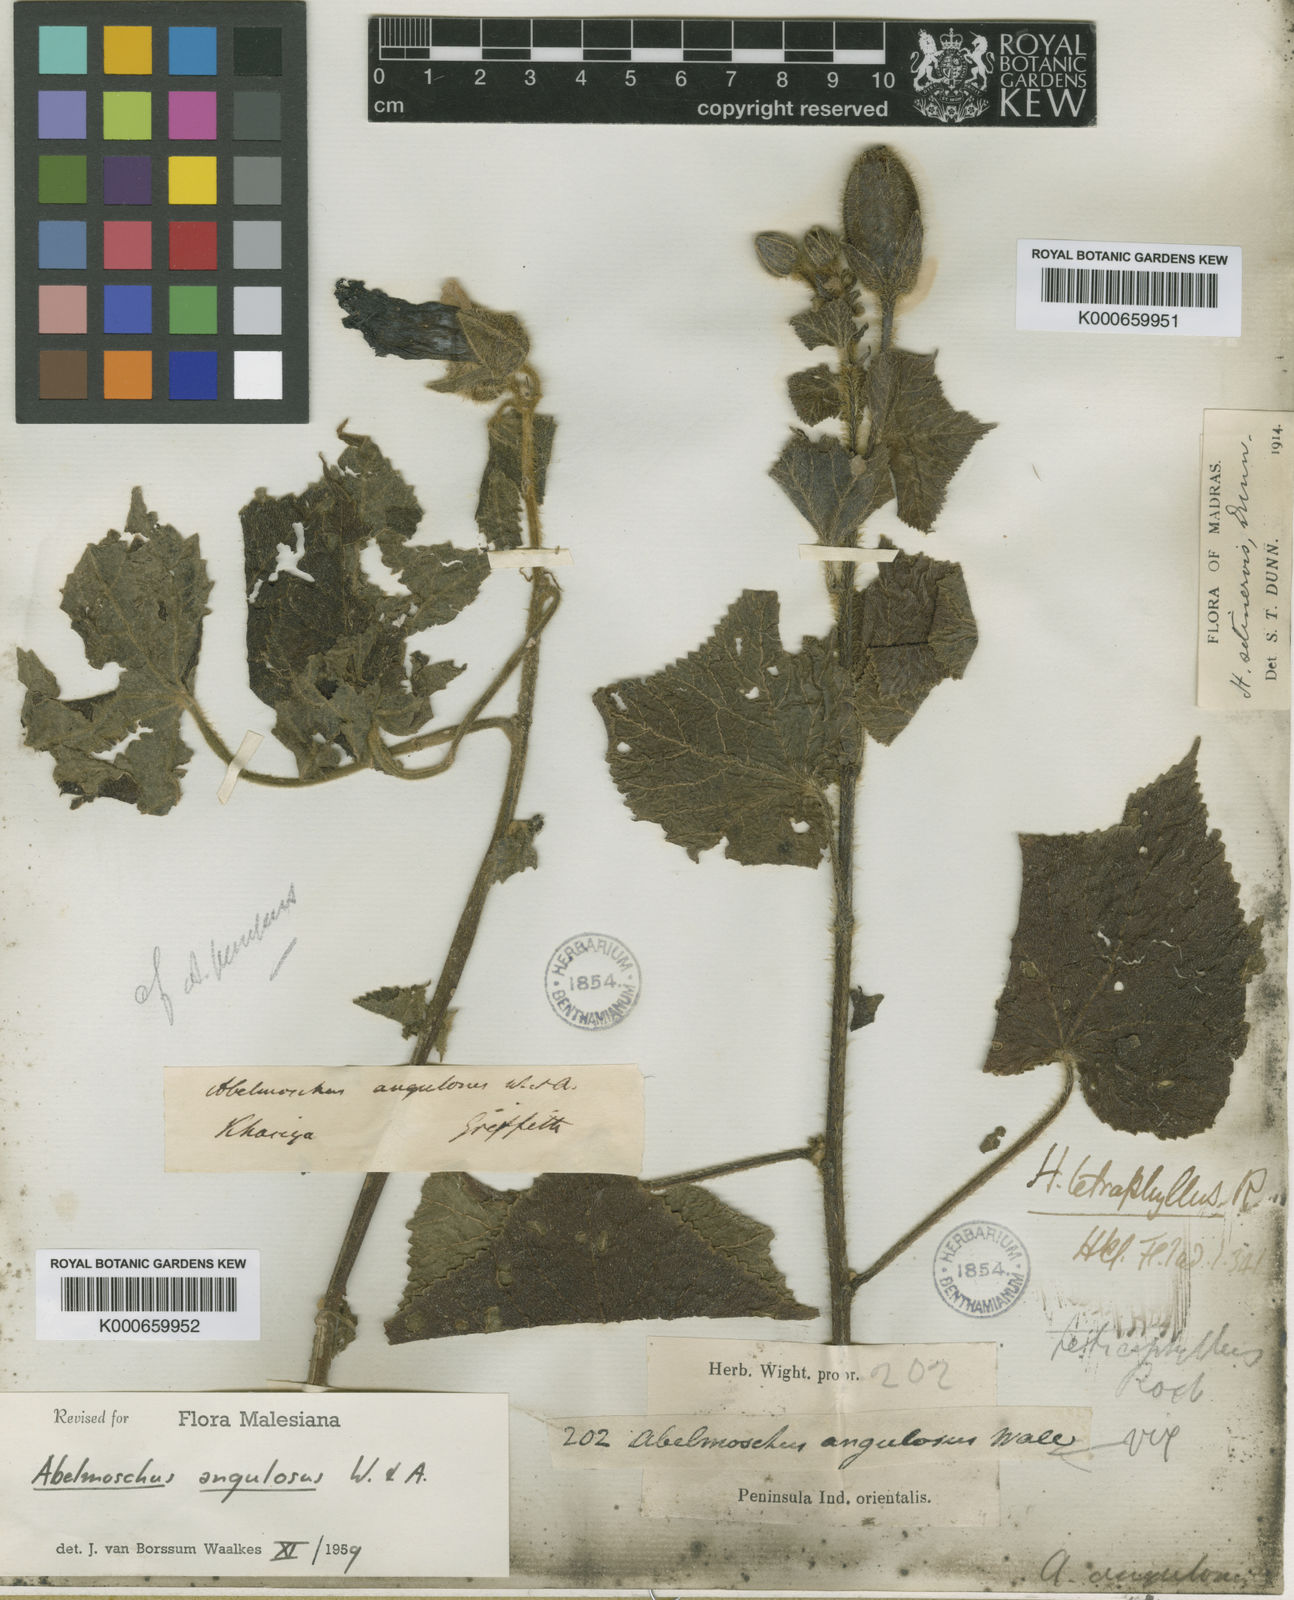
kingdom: Plantae
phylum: Tracheophyta
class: Magnoliopsida
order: Malvales
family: Malvaceae
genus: Abelmoschus
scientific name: Abelmoschus angulosus
